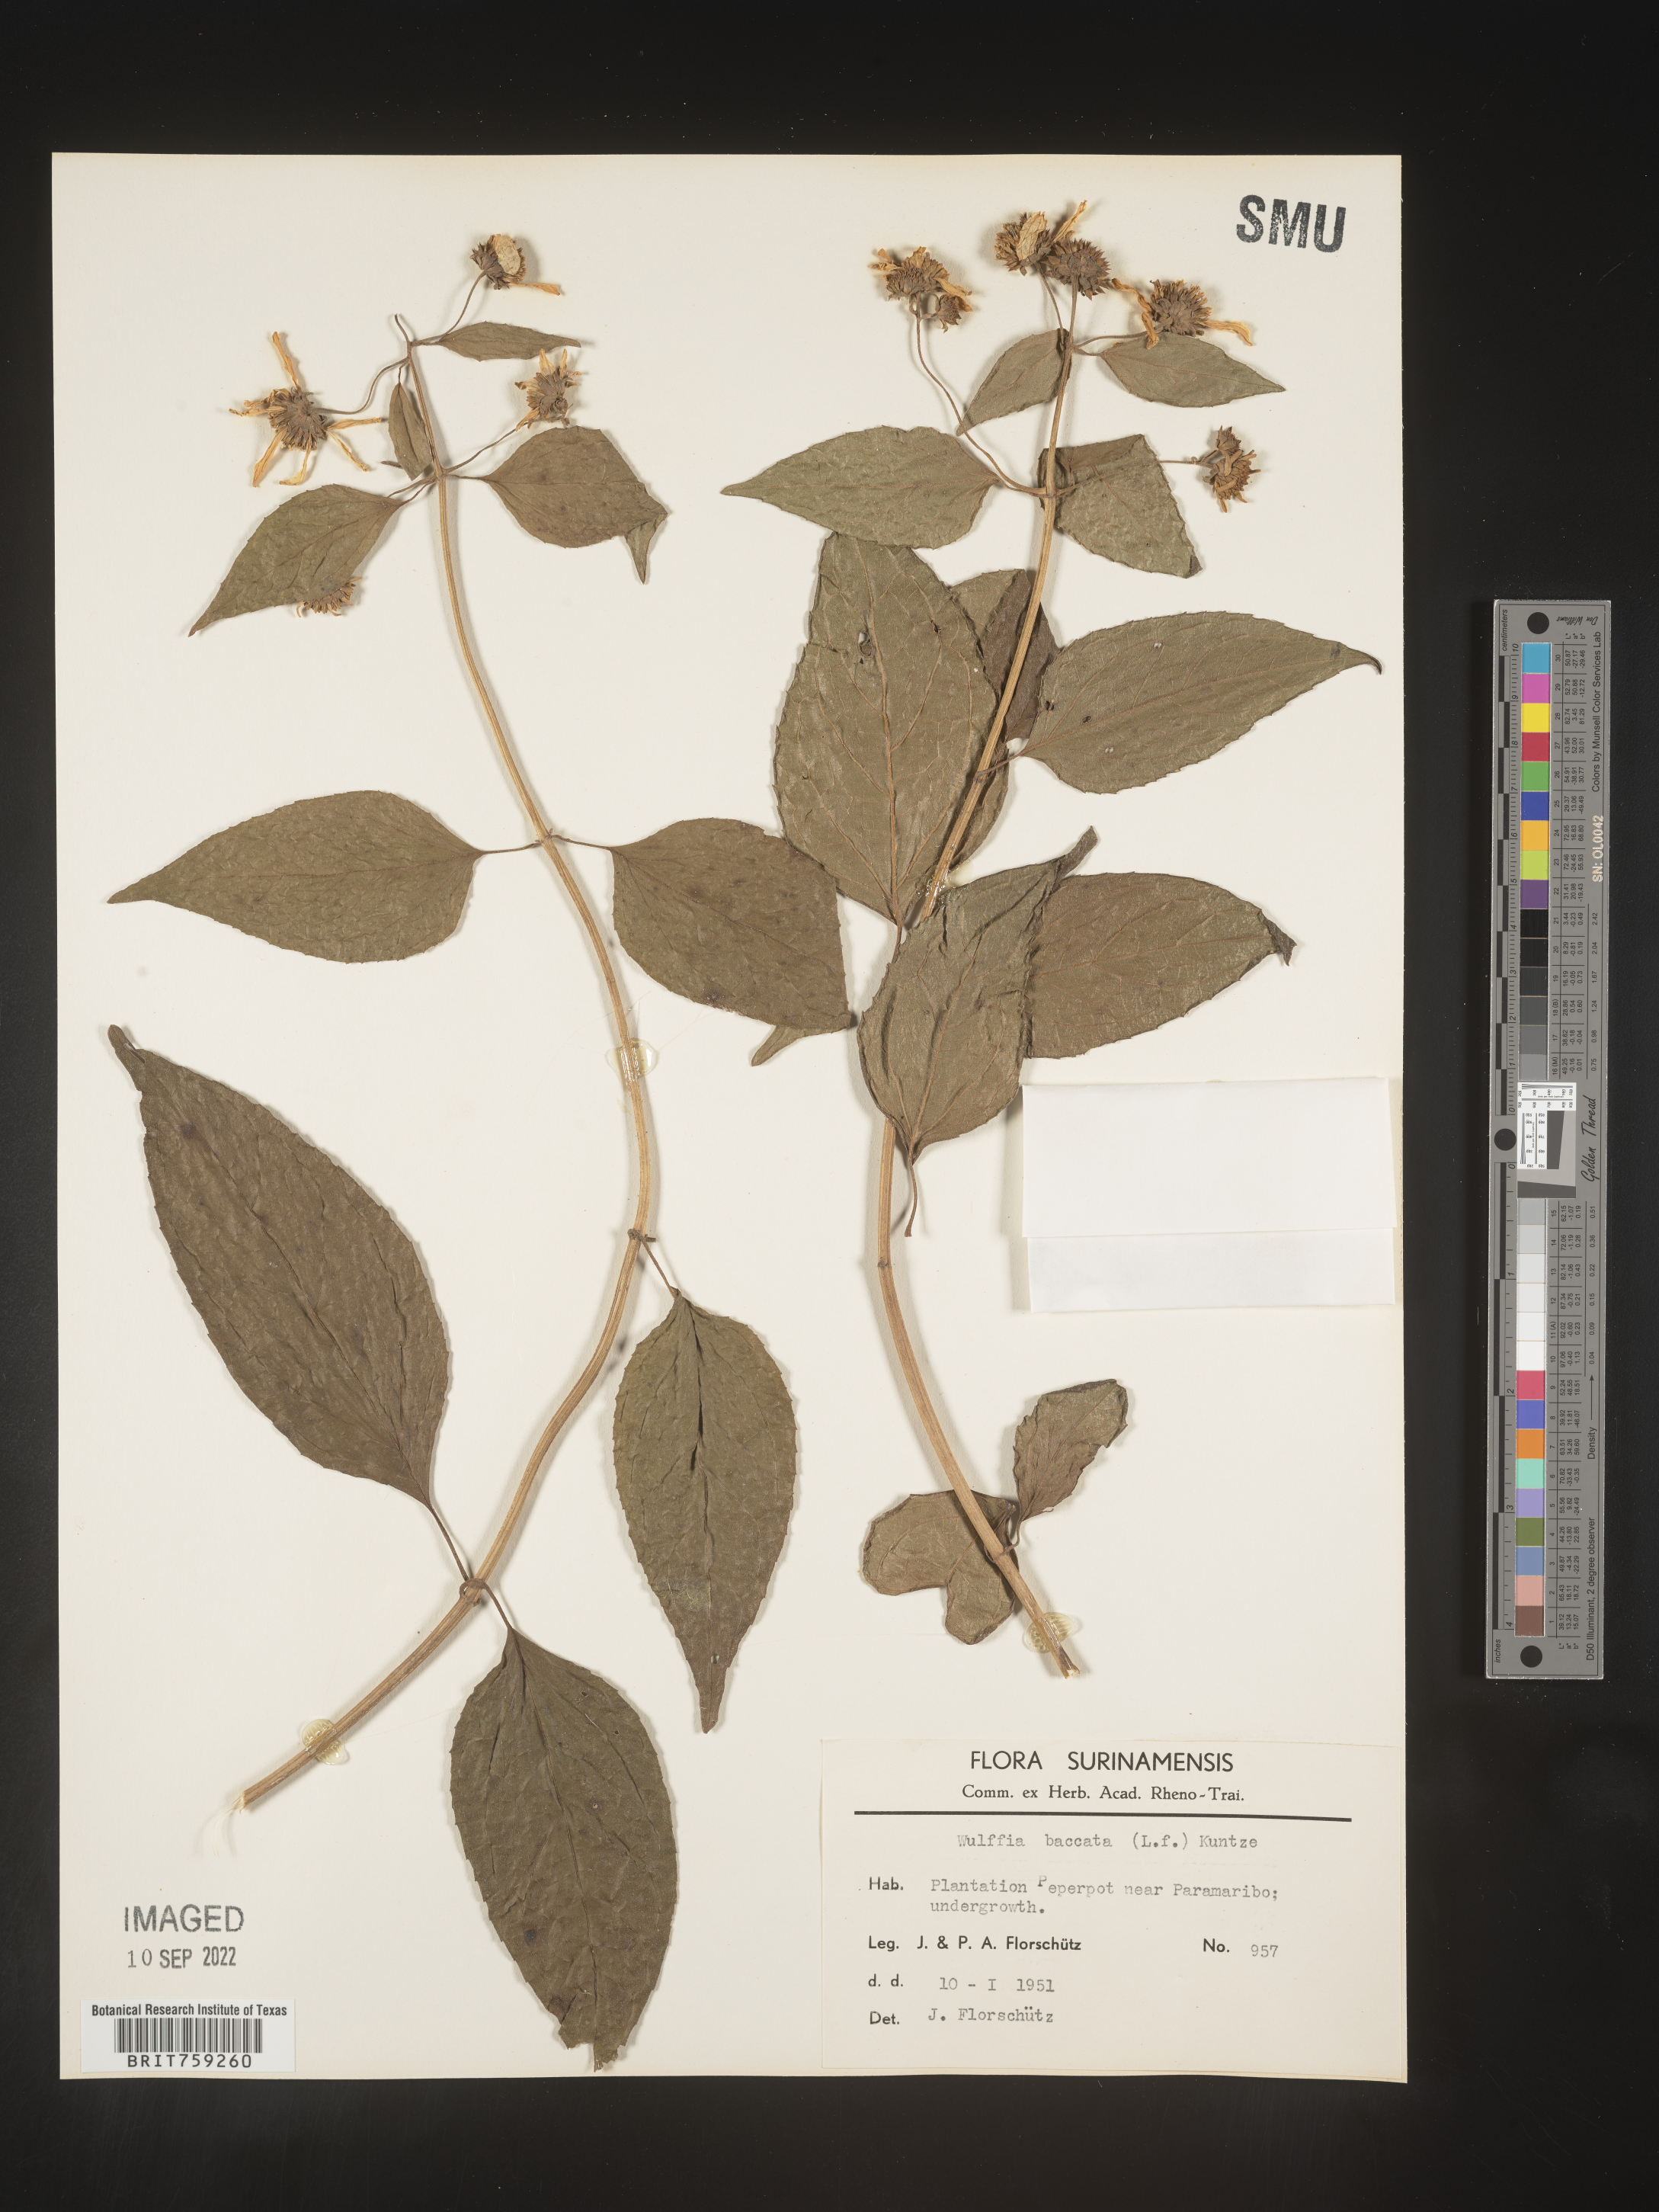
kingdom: Plantae
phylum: Tracheophyta
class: Magnoliopsida
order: Asterales
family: Asteraceae
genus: Tilesia
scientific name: Tilesia
